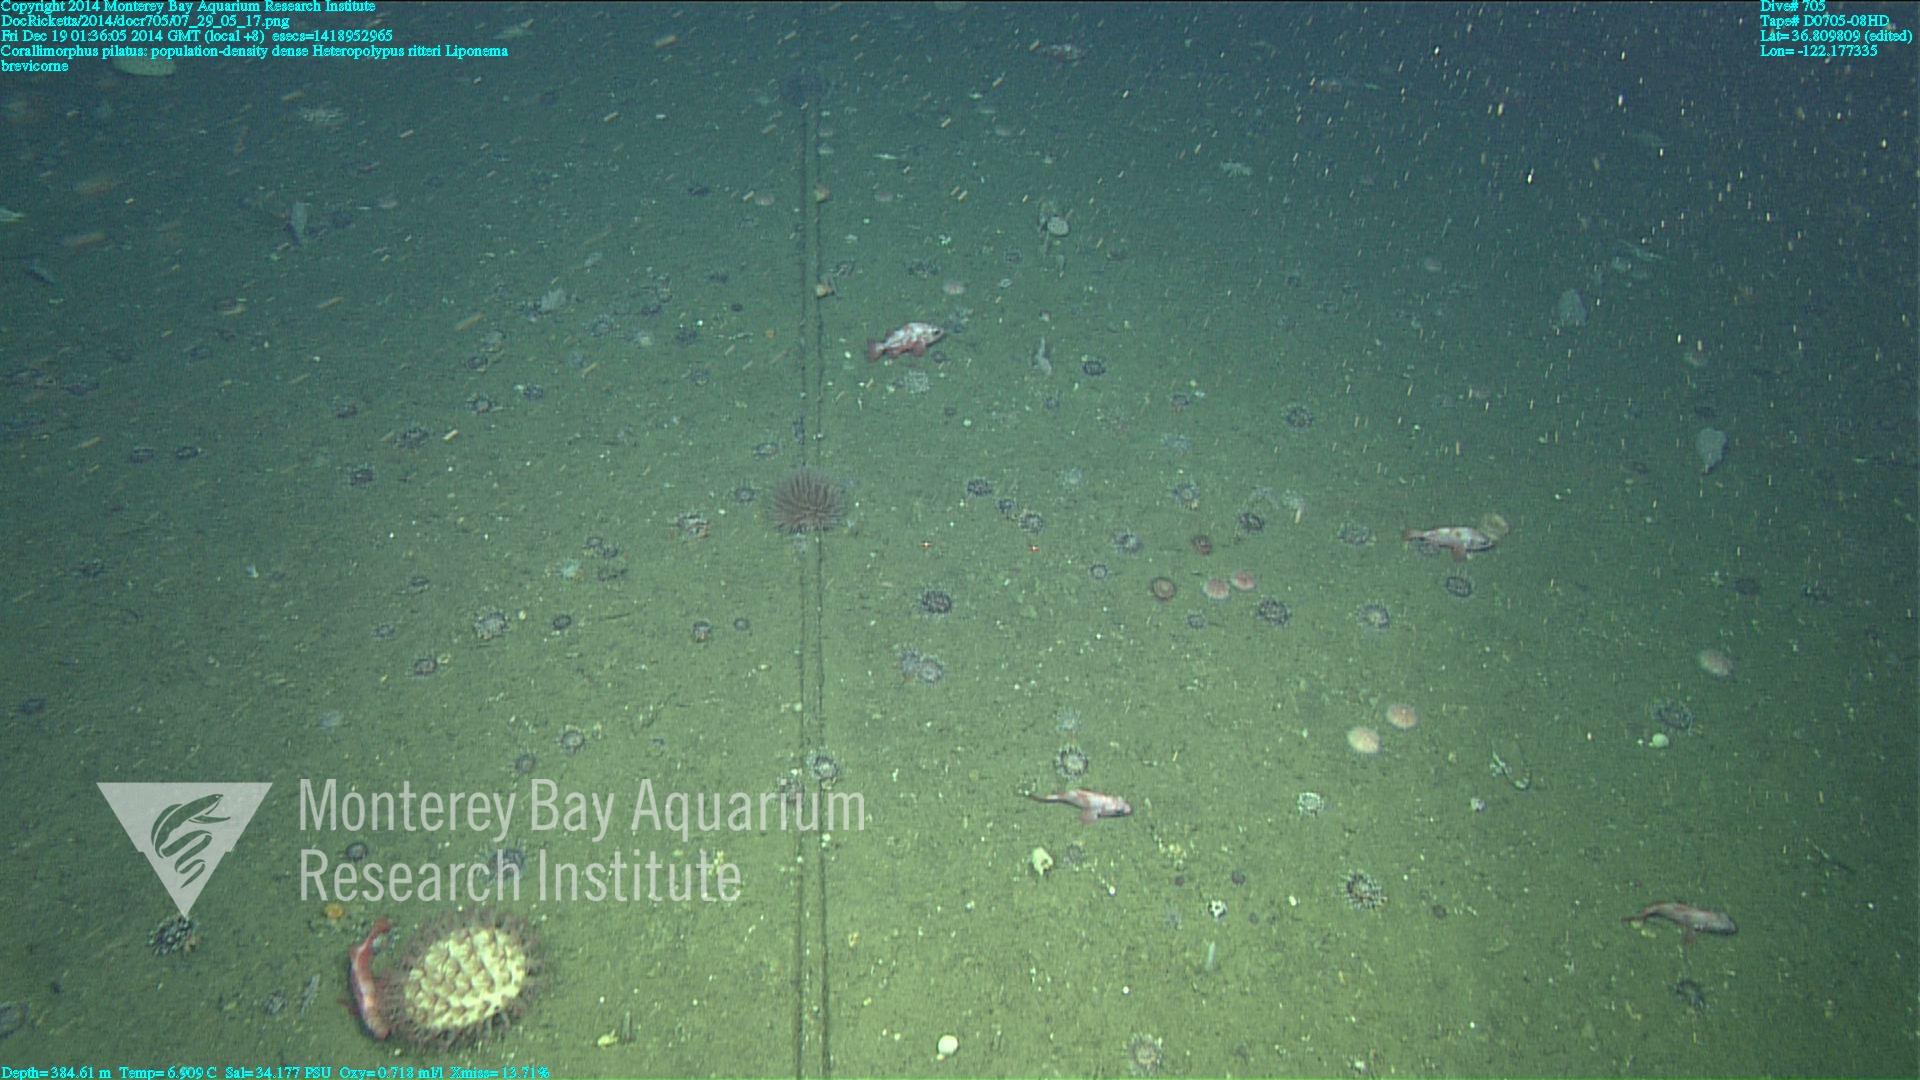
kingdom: Animalia
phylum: Cnidaria
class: Anthozoa
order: Scleralcyonacea
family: Coralliidae
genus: Heteropolypus
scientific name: Heteropolypus ritteri
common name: Ritter's soft coral
